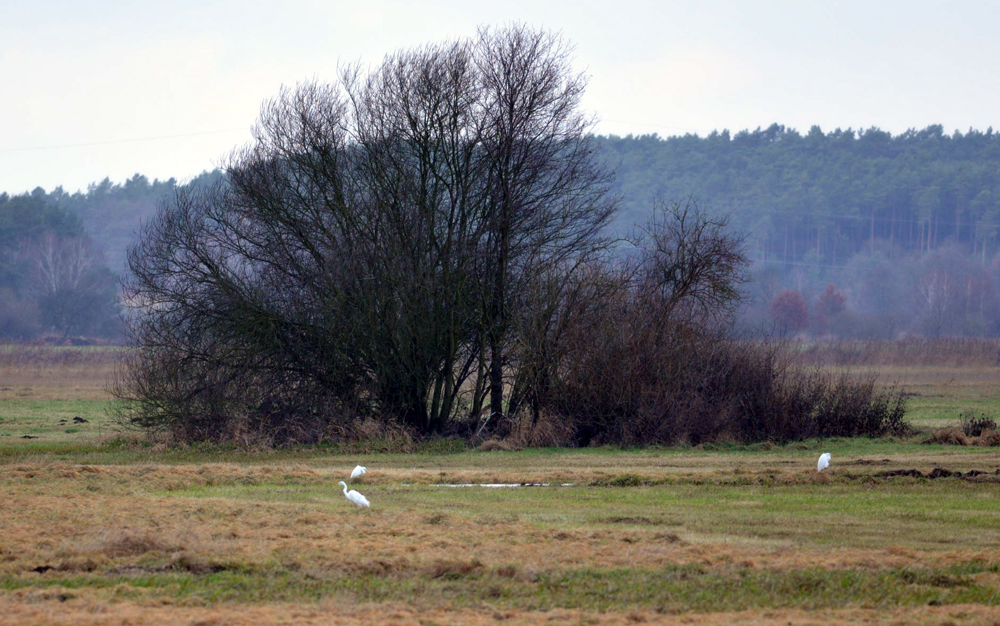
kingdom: Animalia
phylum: Chordata
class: Aves
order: Pelecaniformes
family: Ardeidae
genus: Ardea
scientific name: Ardea alba
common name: Great egret
